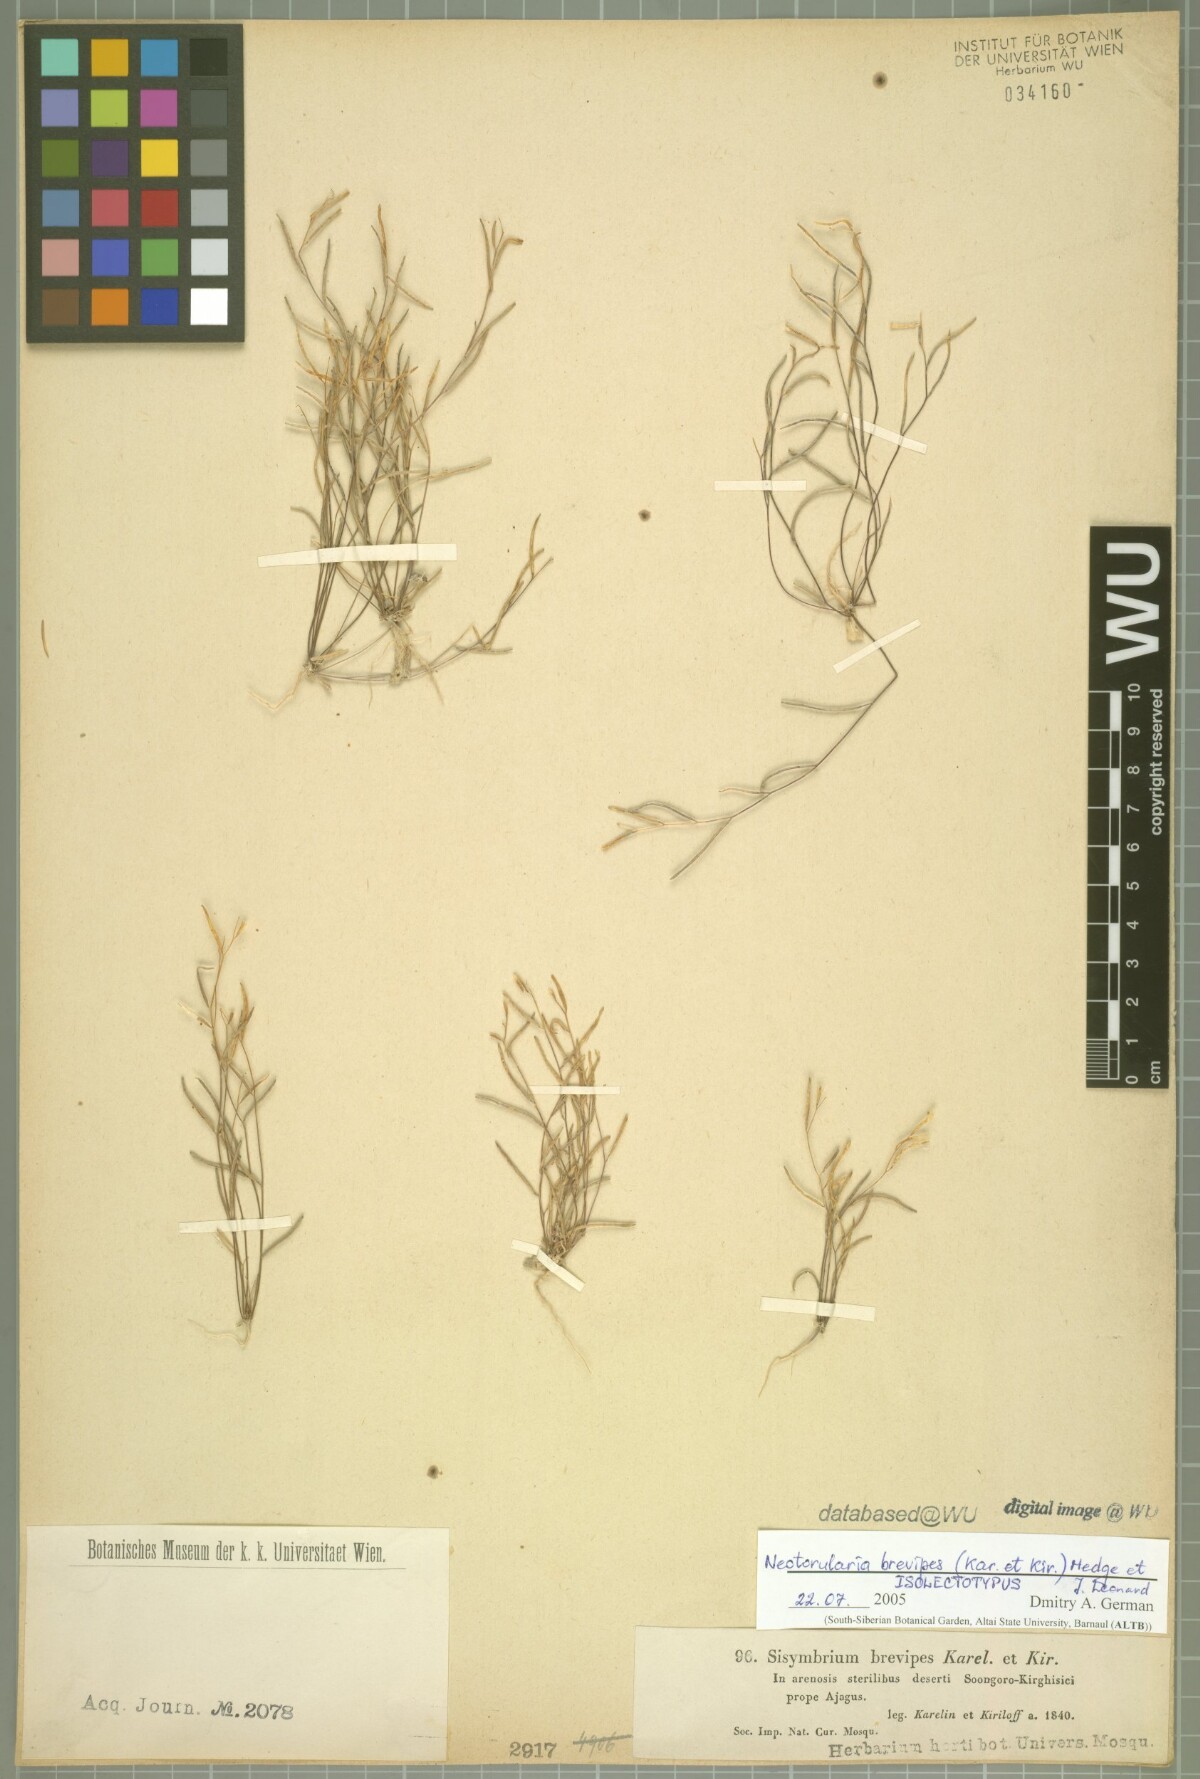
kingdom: Plantae
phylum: Tracheophyta
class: Magnoliopsida
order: Brassicales
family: Brassicaceae
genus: Neotorularia
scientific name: Neotorularia brevipes
